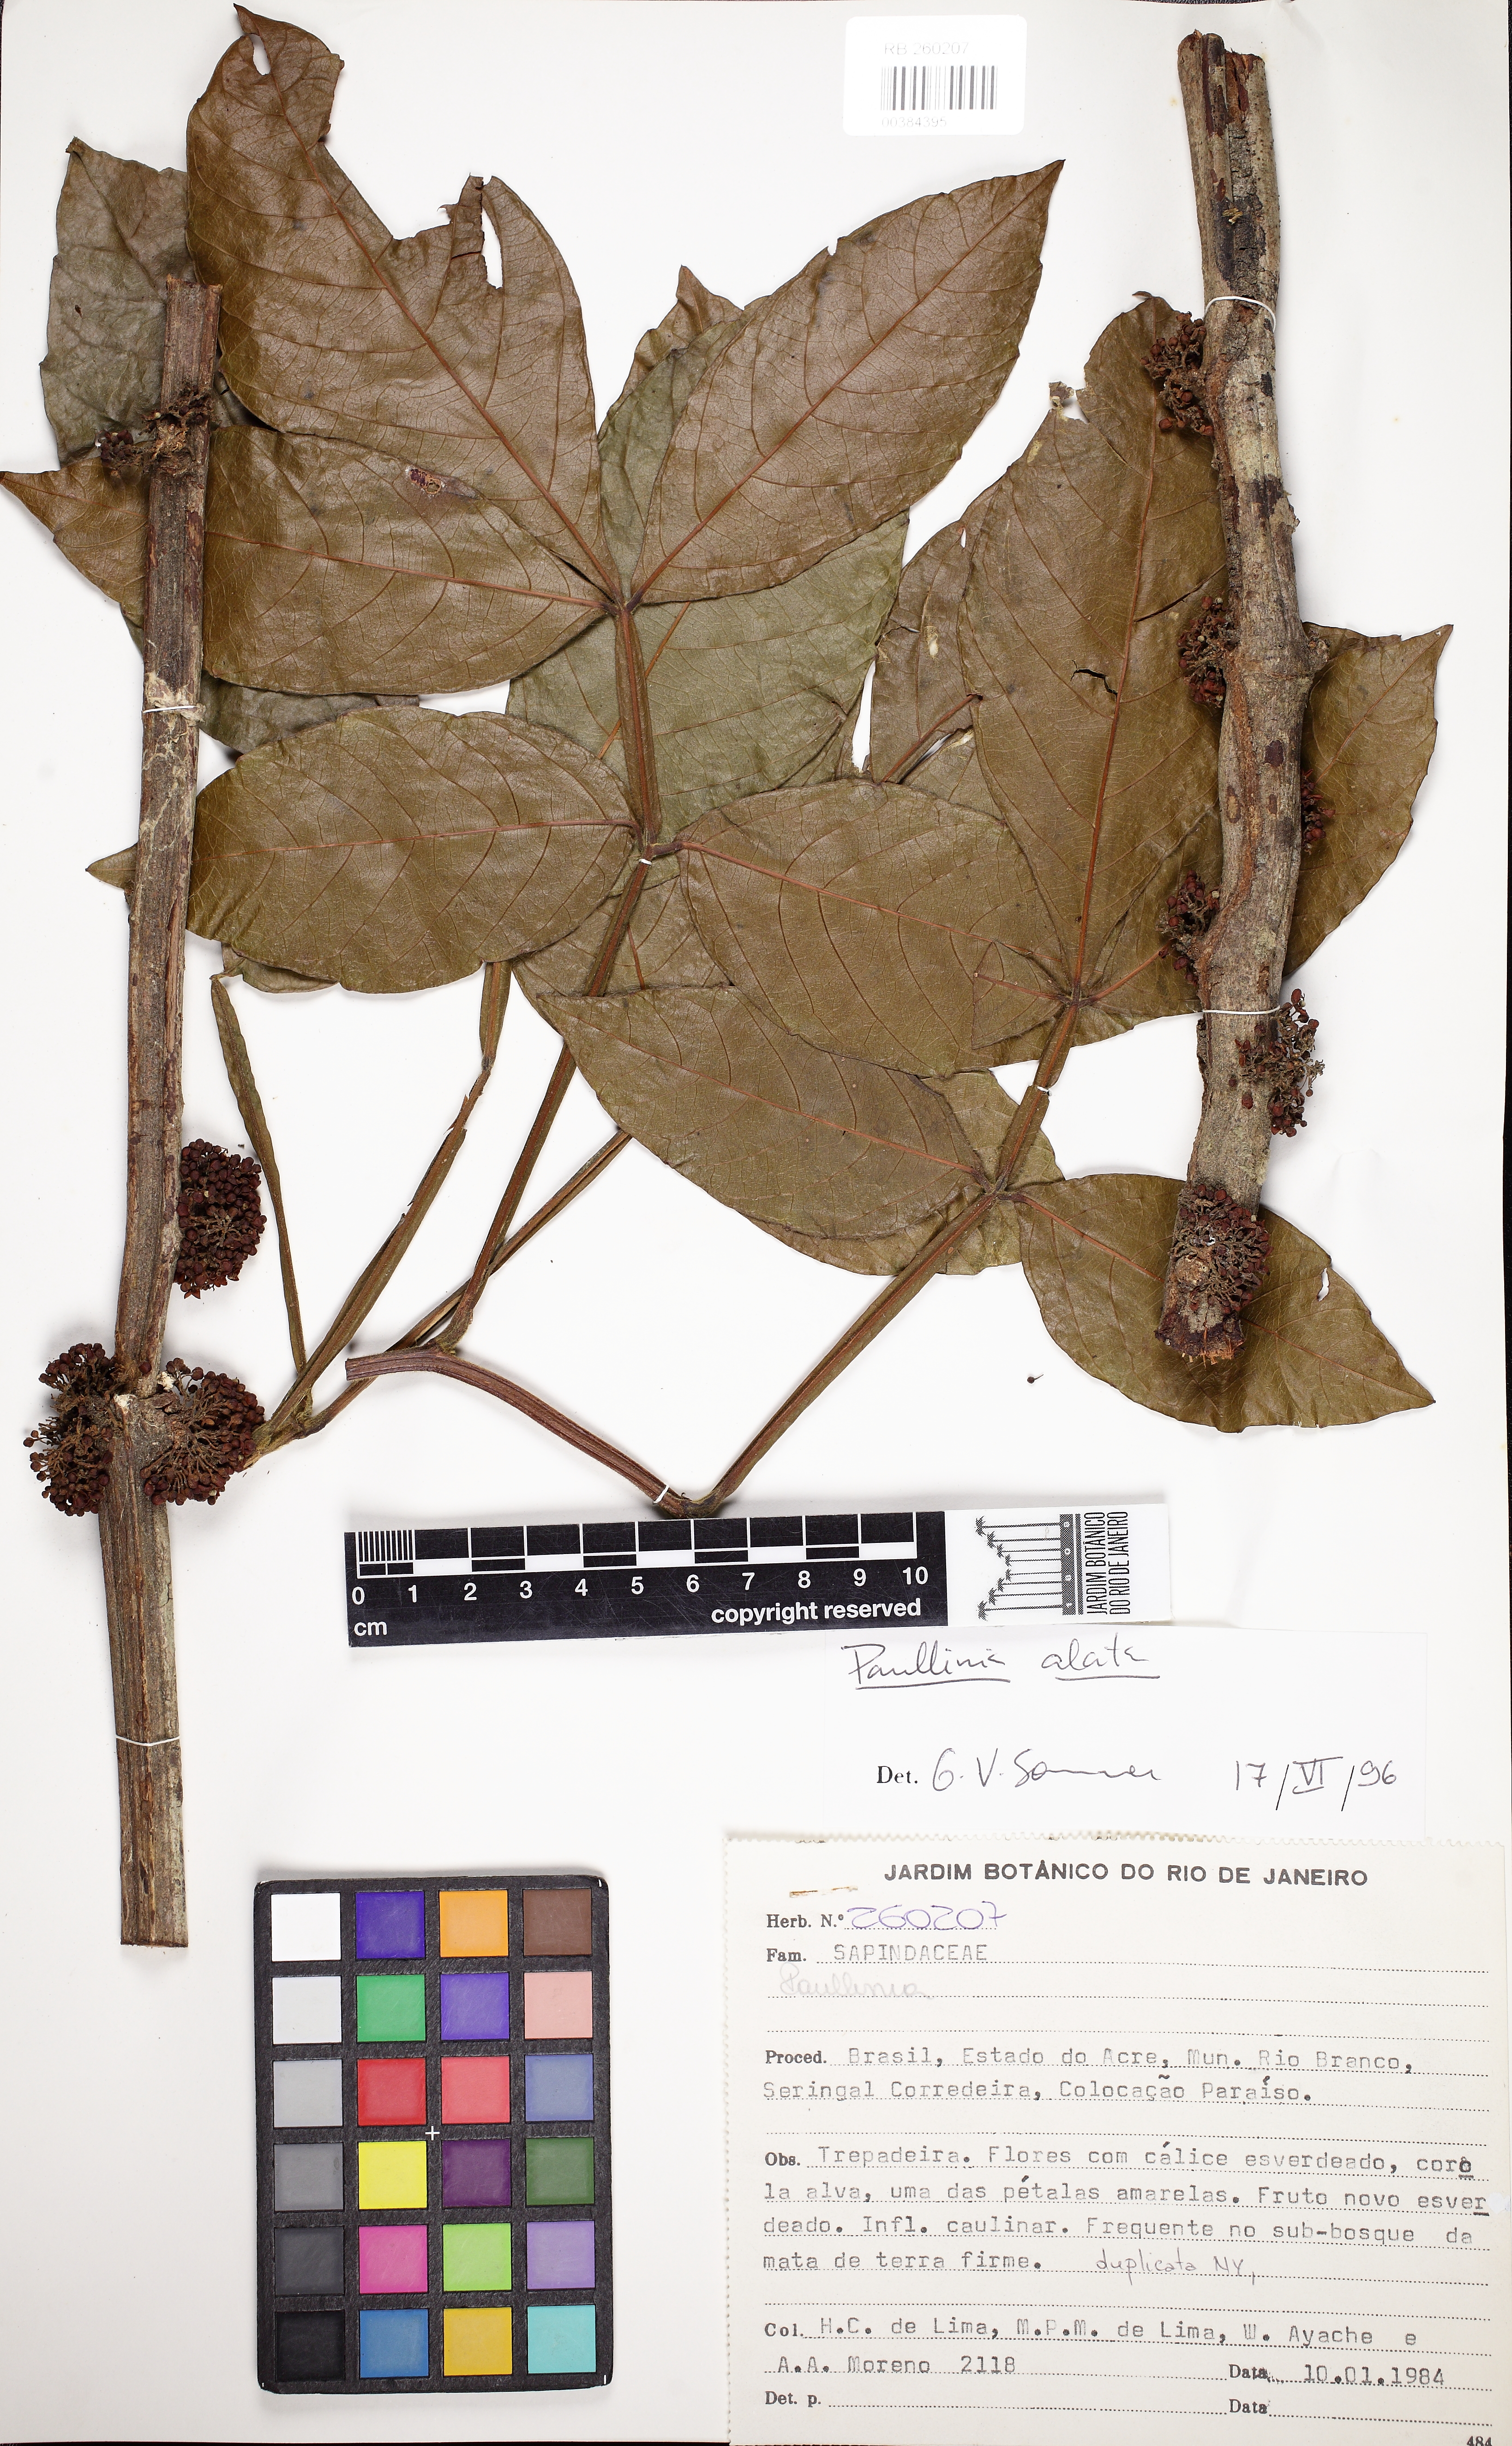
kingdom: Plantae
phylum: Tracheophyta
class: Magnoliopsida
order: Sapindales
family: Sapindaceae
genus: Paullinia
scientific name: Paullinia alata
